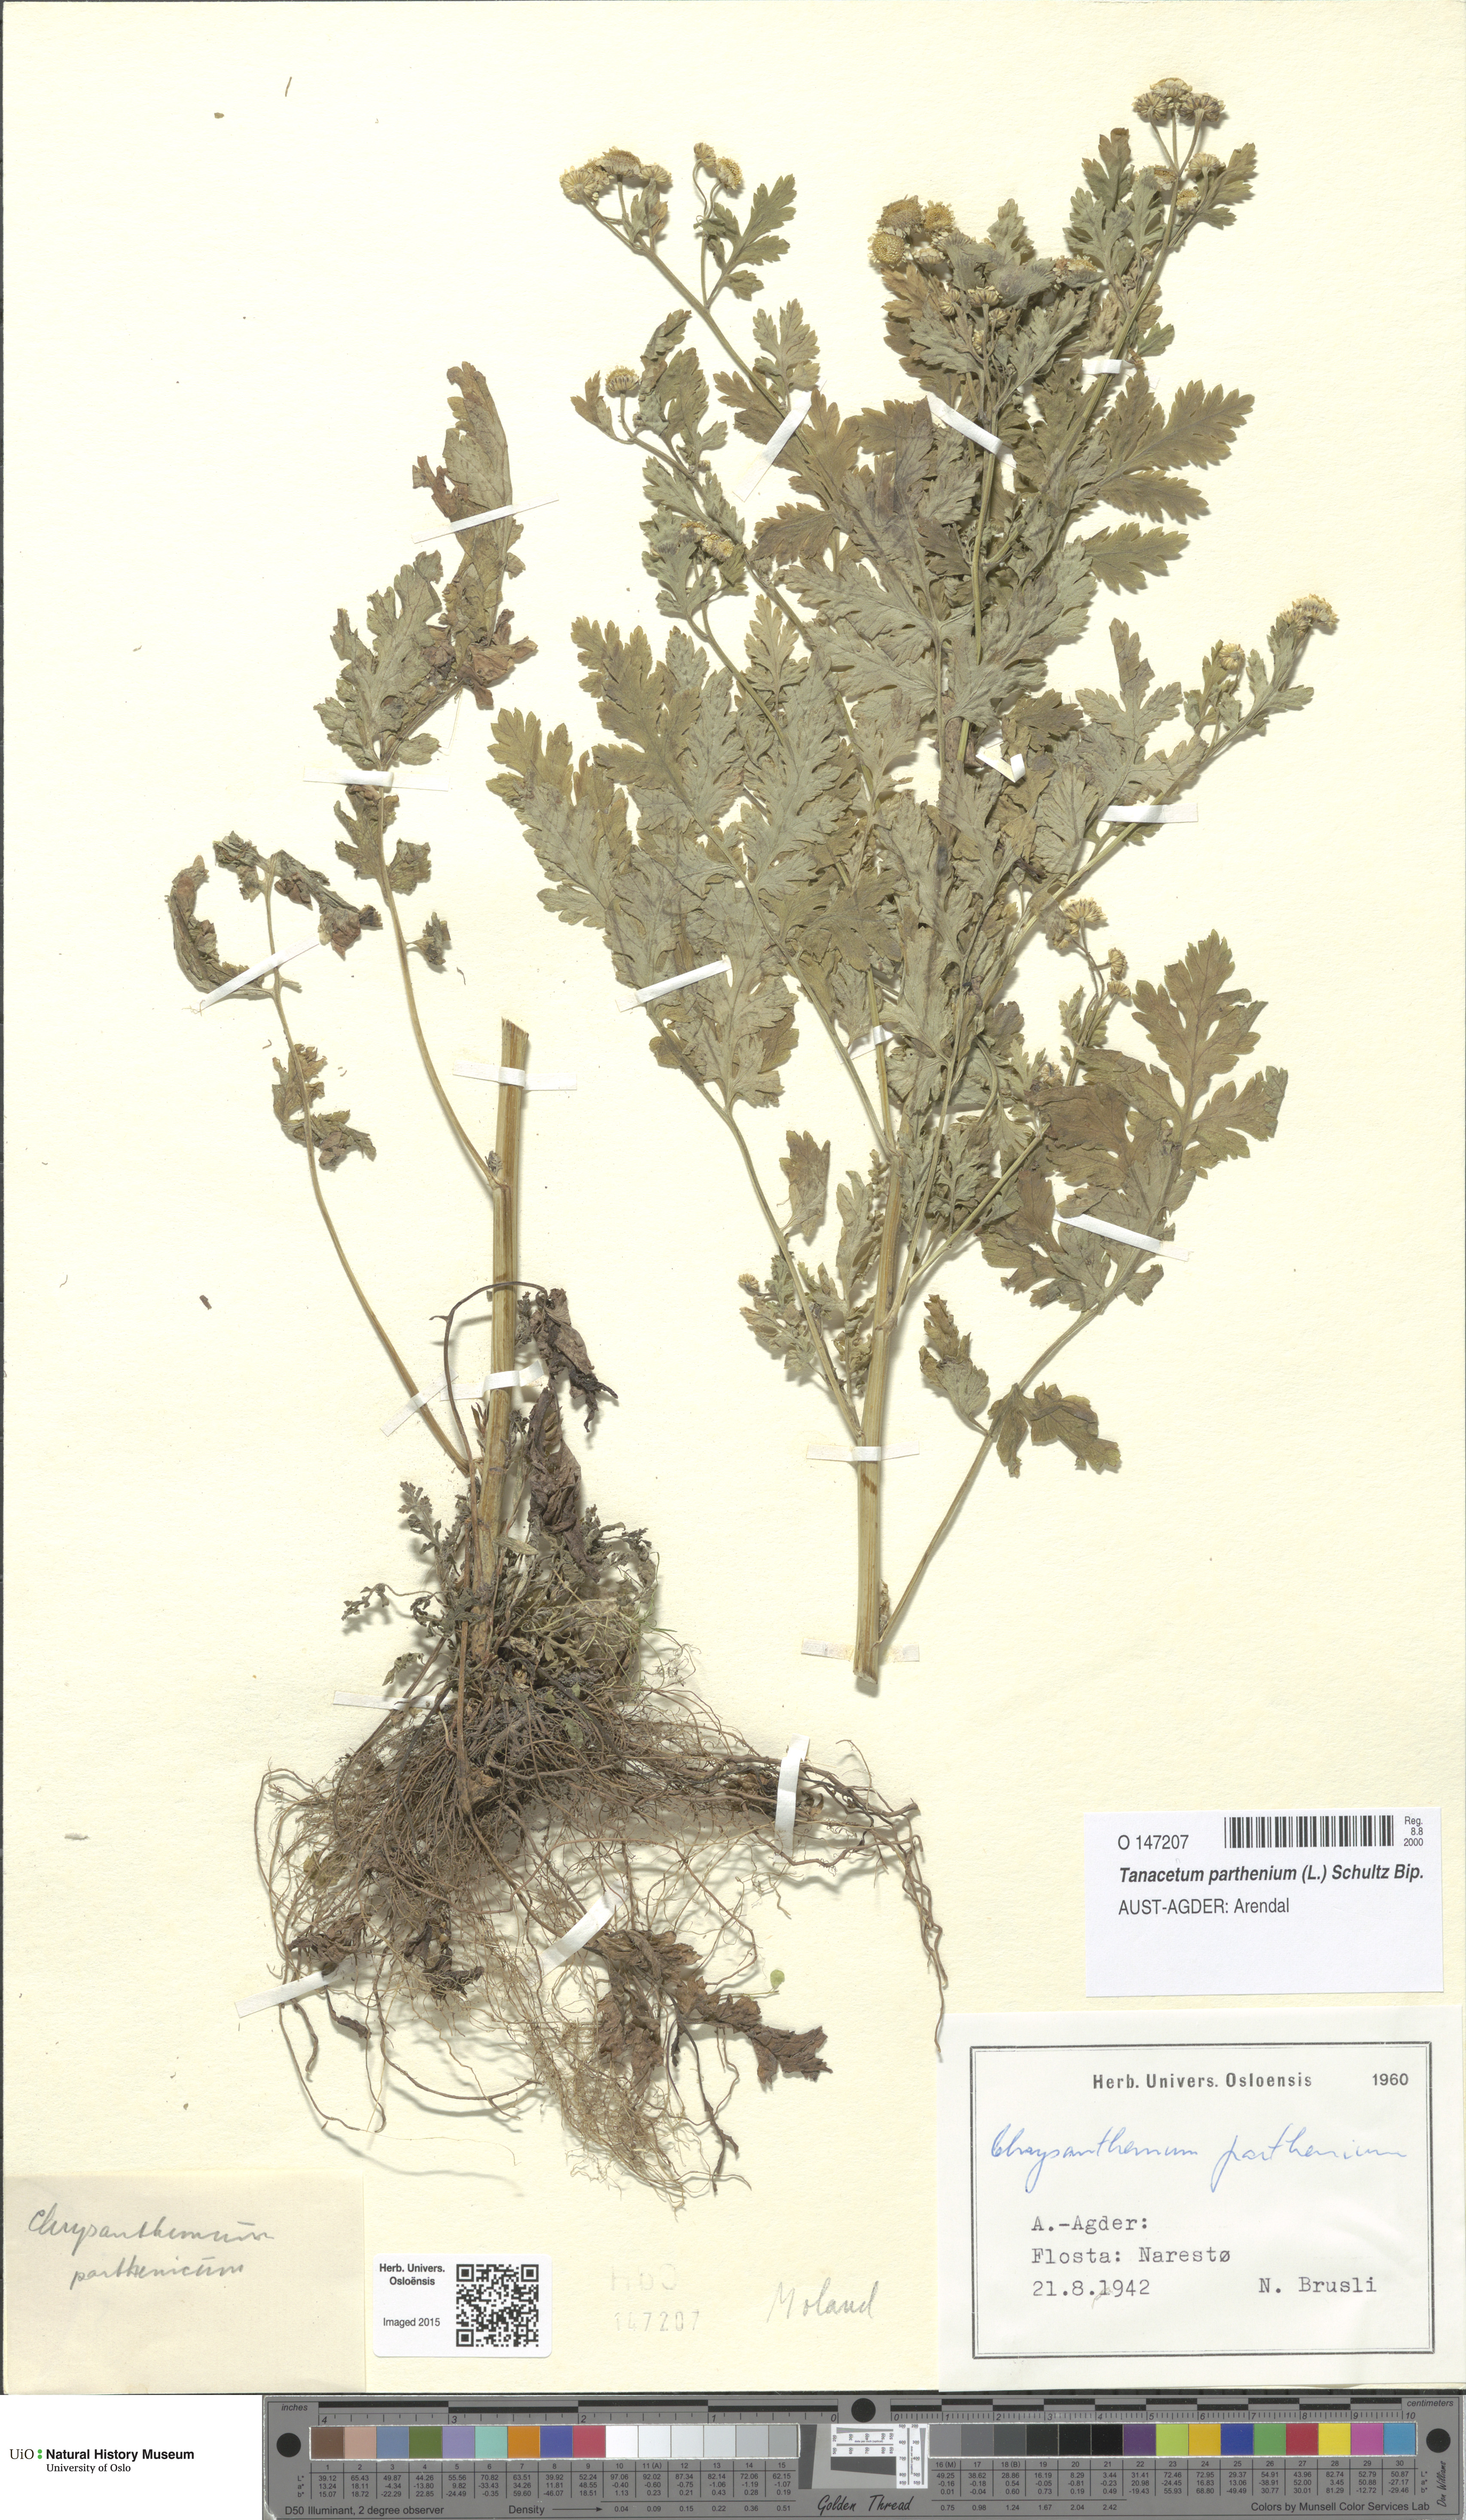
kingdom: Plantae
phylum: Tracheophyta
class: Magnoliopsida
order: Asterales
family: Asteraceae
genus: Tanacetum
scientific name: Tanacetum parthenium
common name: Feverfew
